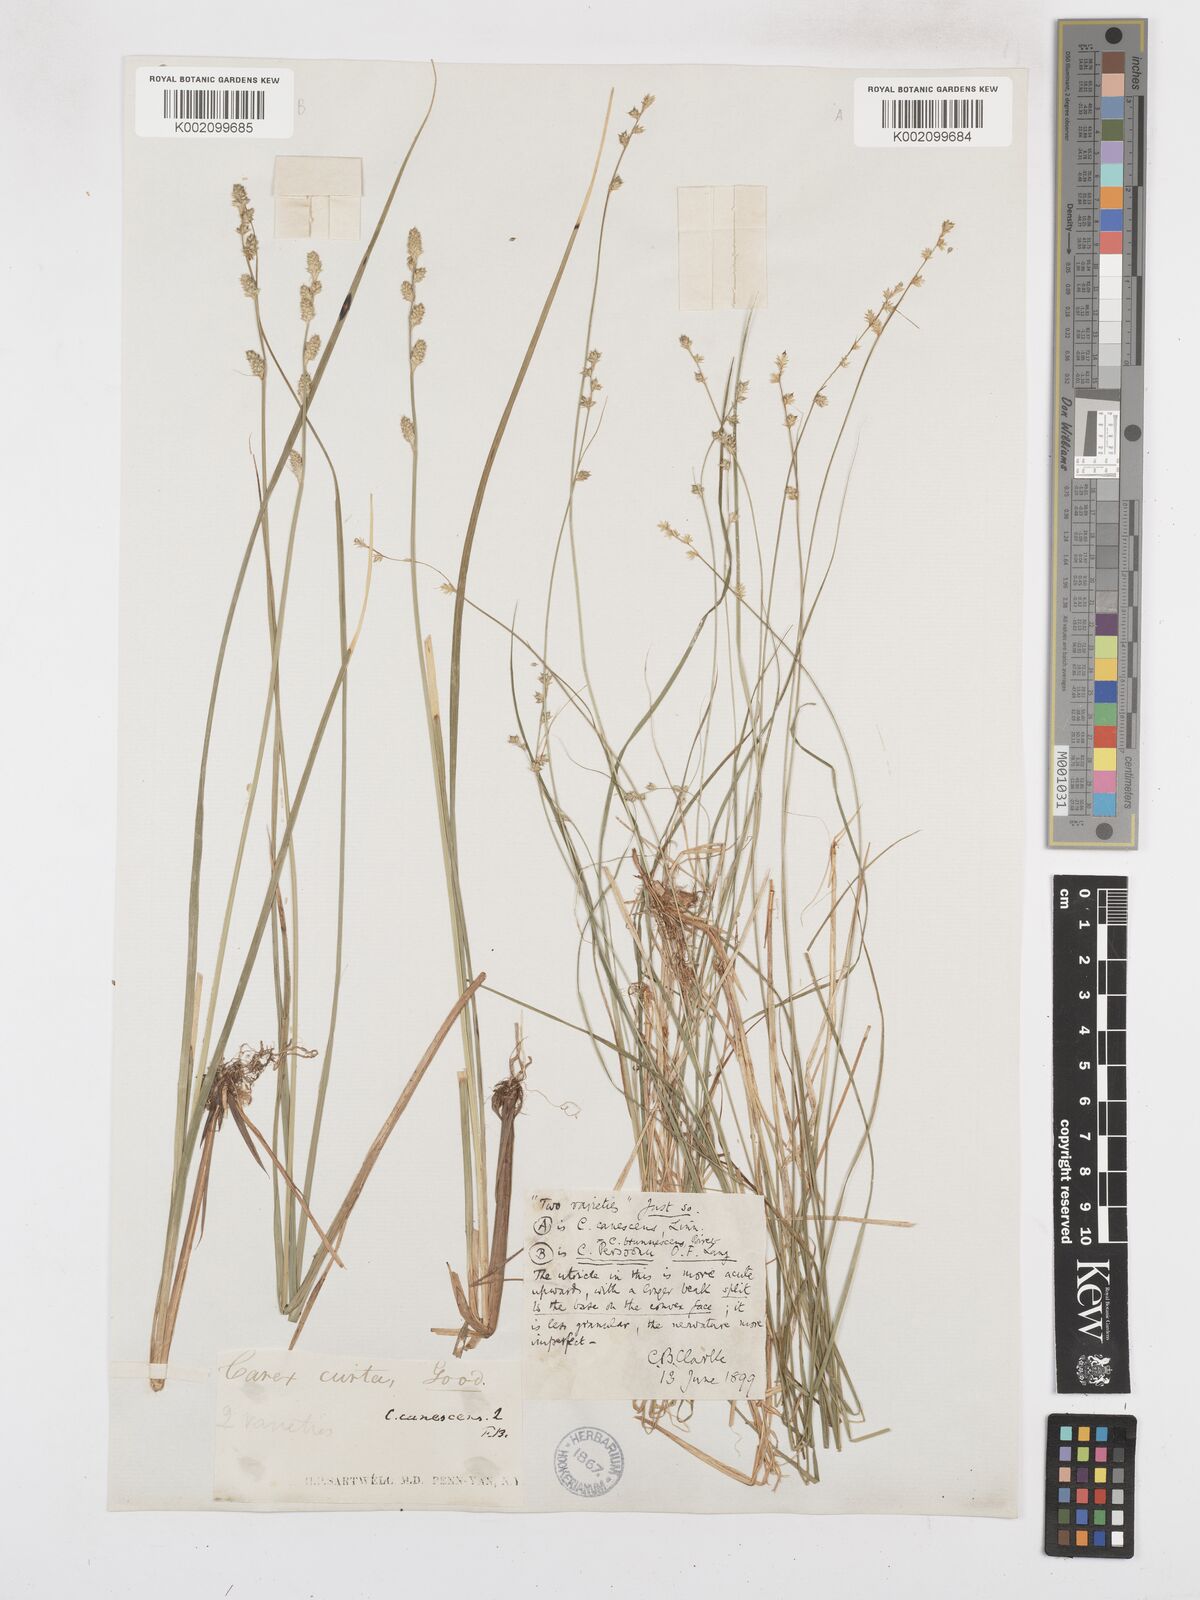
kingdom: Plantae
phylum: Tracheophyta
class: Liliopsida
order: Poales
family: Cyperaceae
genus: Carex
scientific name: Carex brunnescens
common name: Brown sedge
